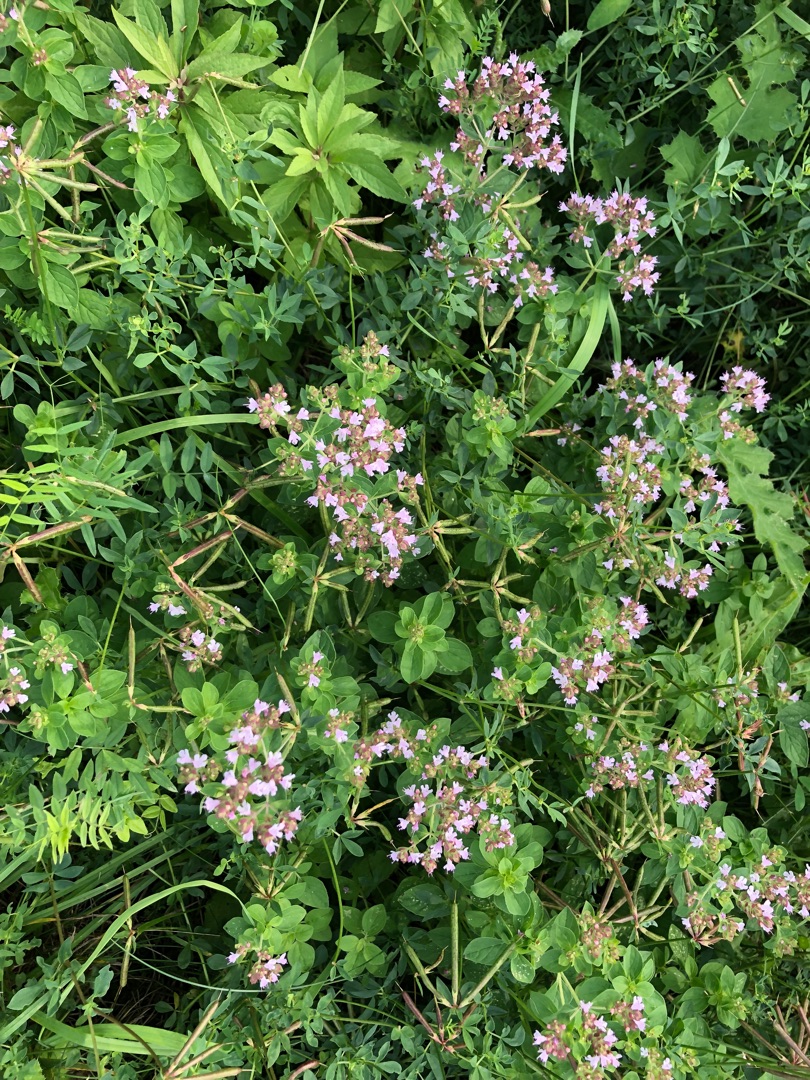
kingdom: Plantae
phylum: Tracheophyta
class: Magnoliopsida
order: Lamiales
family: Lamiaceae
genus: Origanum
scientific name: Origanum vulgare
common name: Merian
